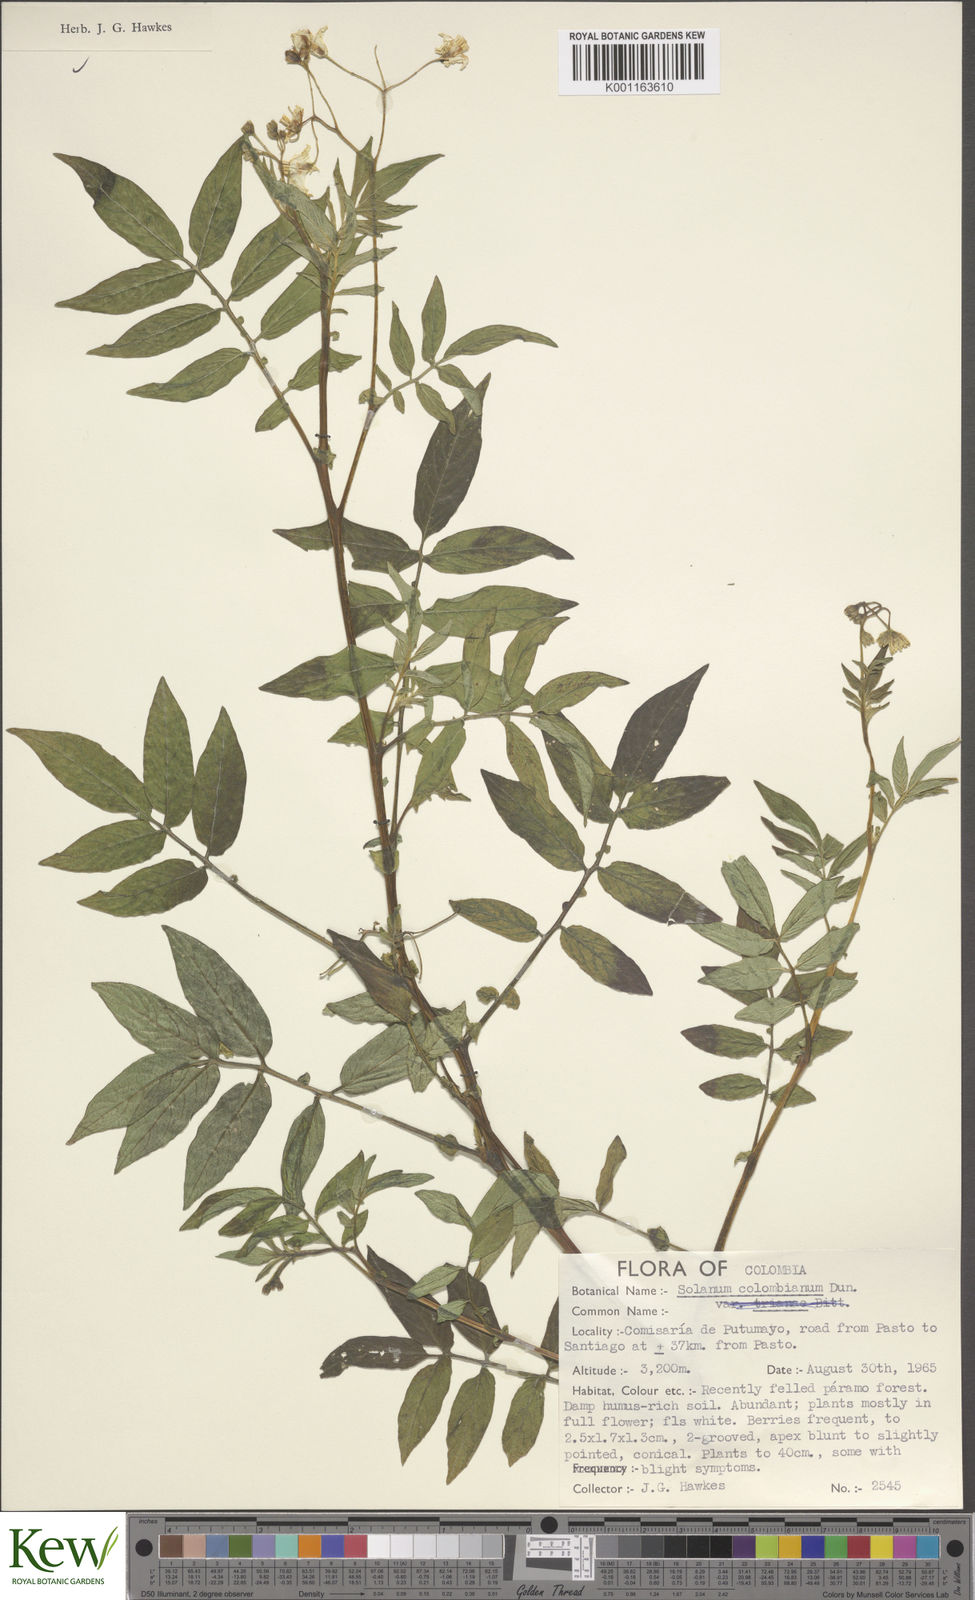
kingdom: Plantae
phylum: Tracheophyta
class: Magnoliopsida
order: Solanales
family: Solanaceae
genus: Solanum
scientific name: Solanum colombianum
